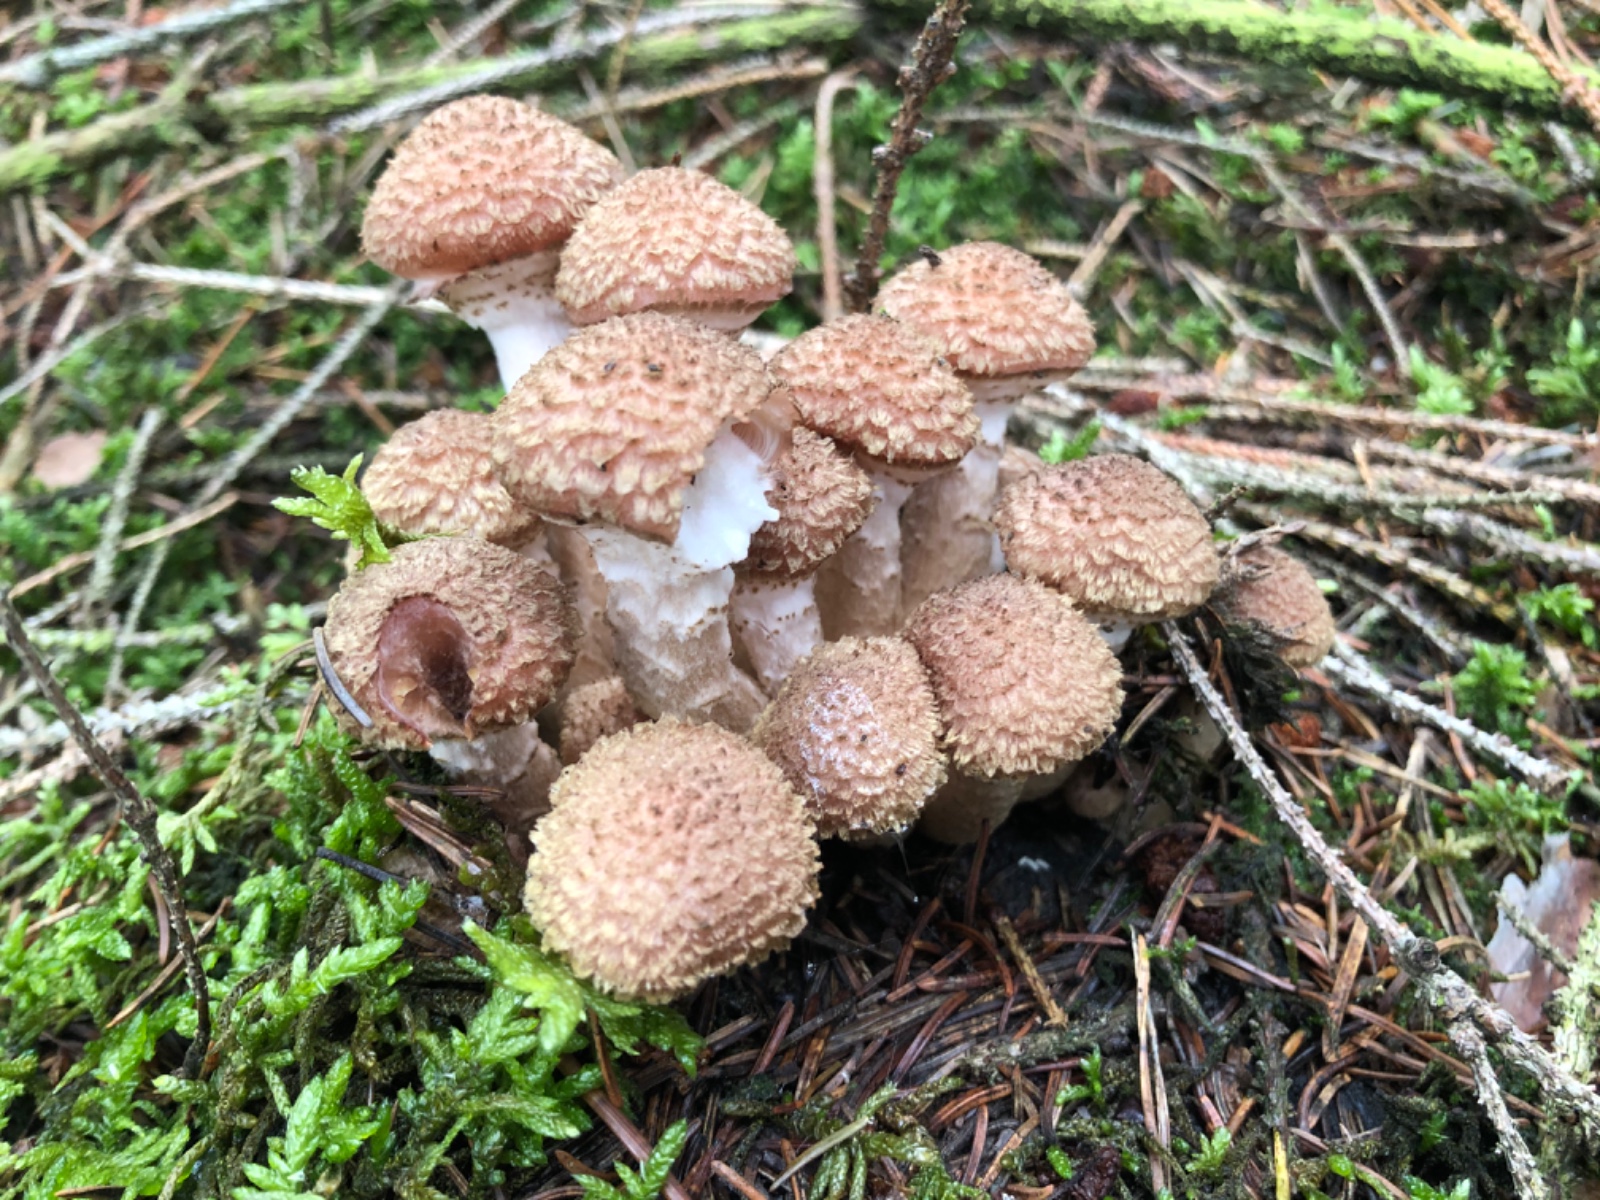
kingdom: Fungi
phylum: Basidiomycota
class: Agaricomycetes
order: Agaricales
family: Physalacriaceae
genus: Armillaria
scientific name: Armillaria ostoyae
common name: mørk honningsvamp
